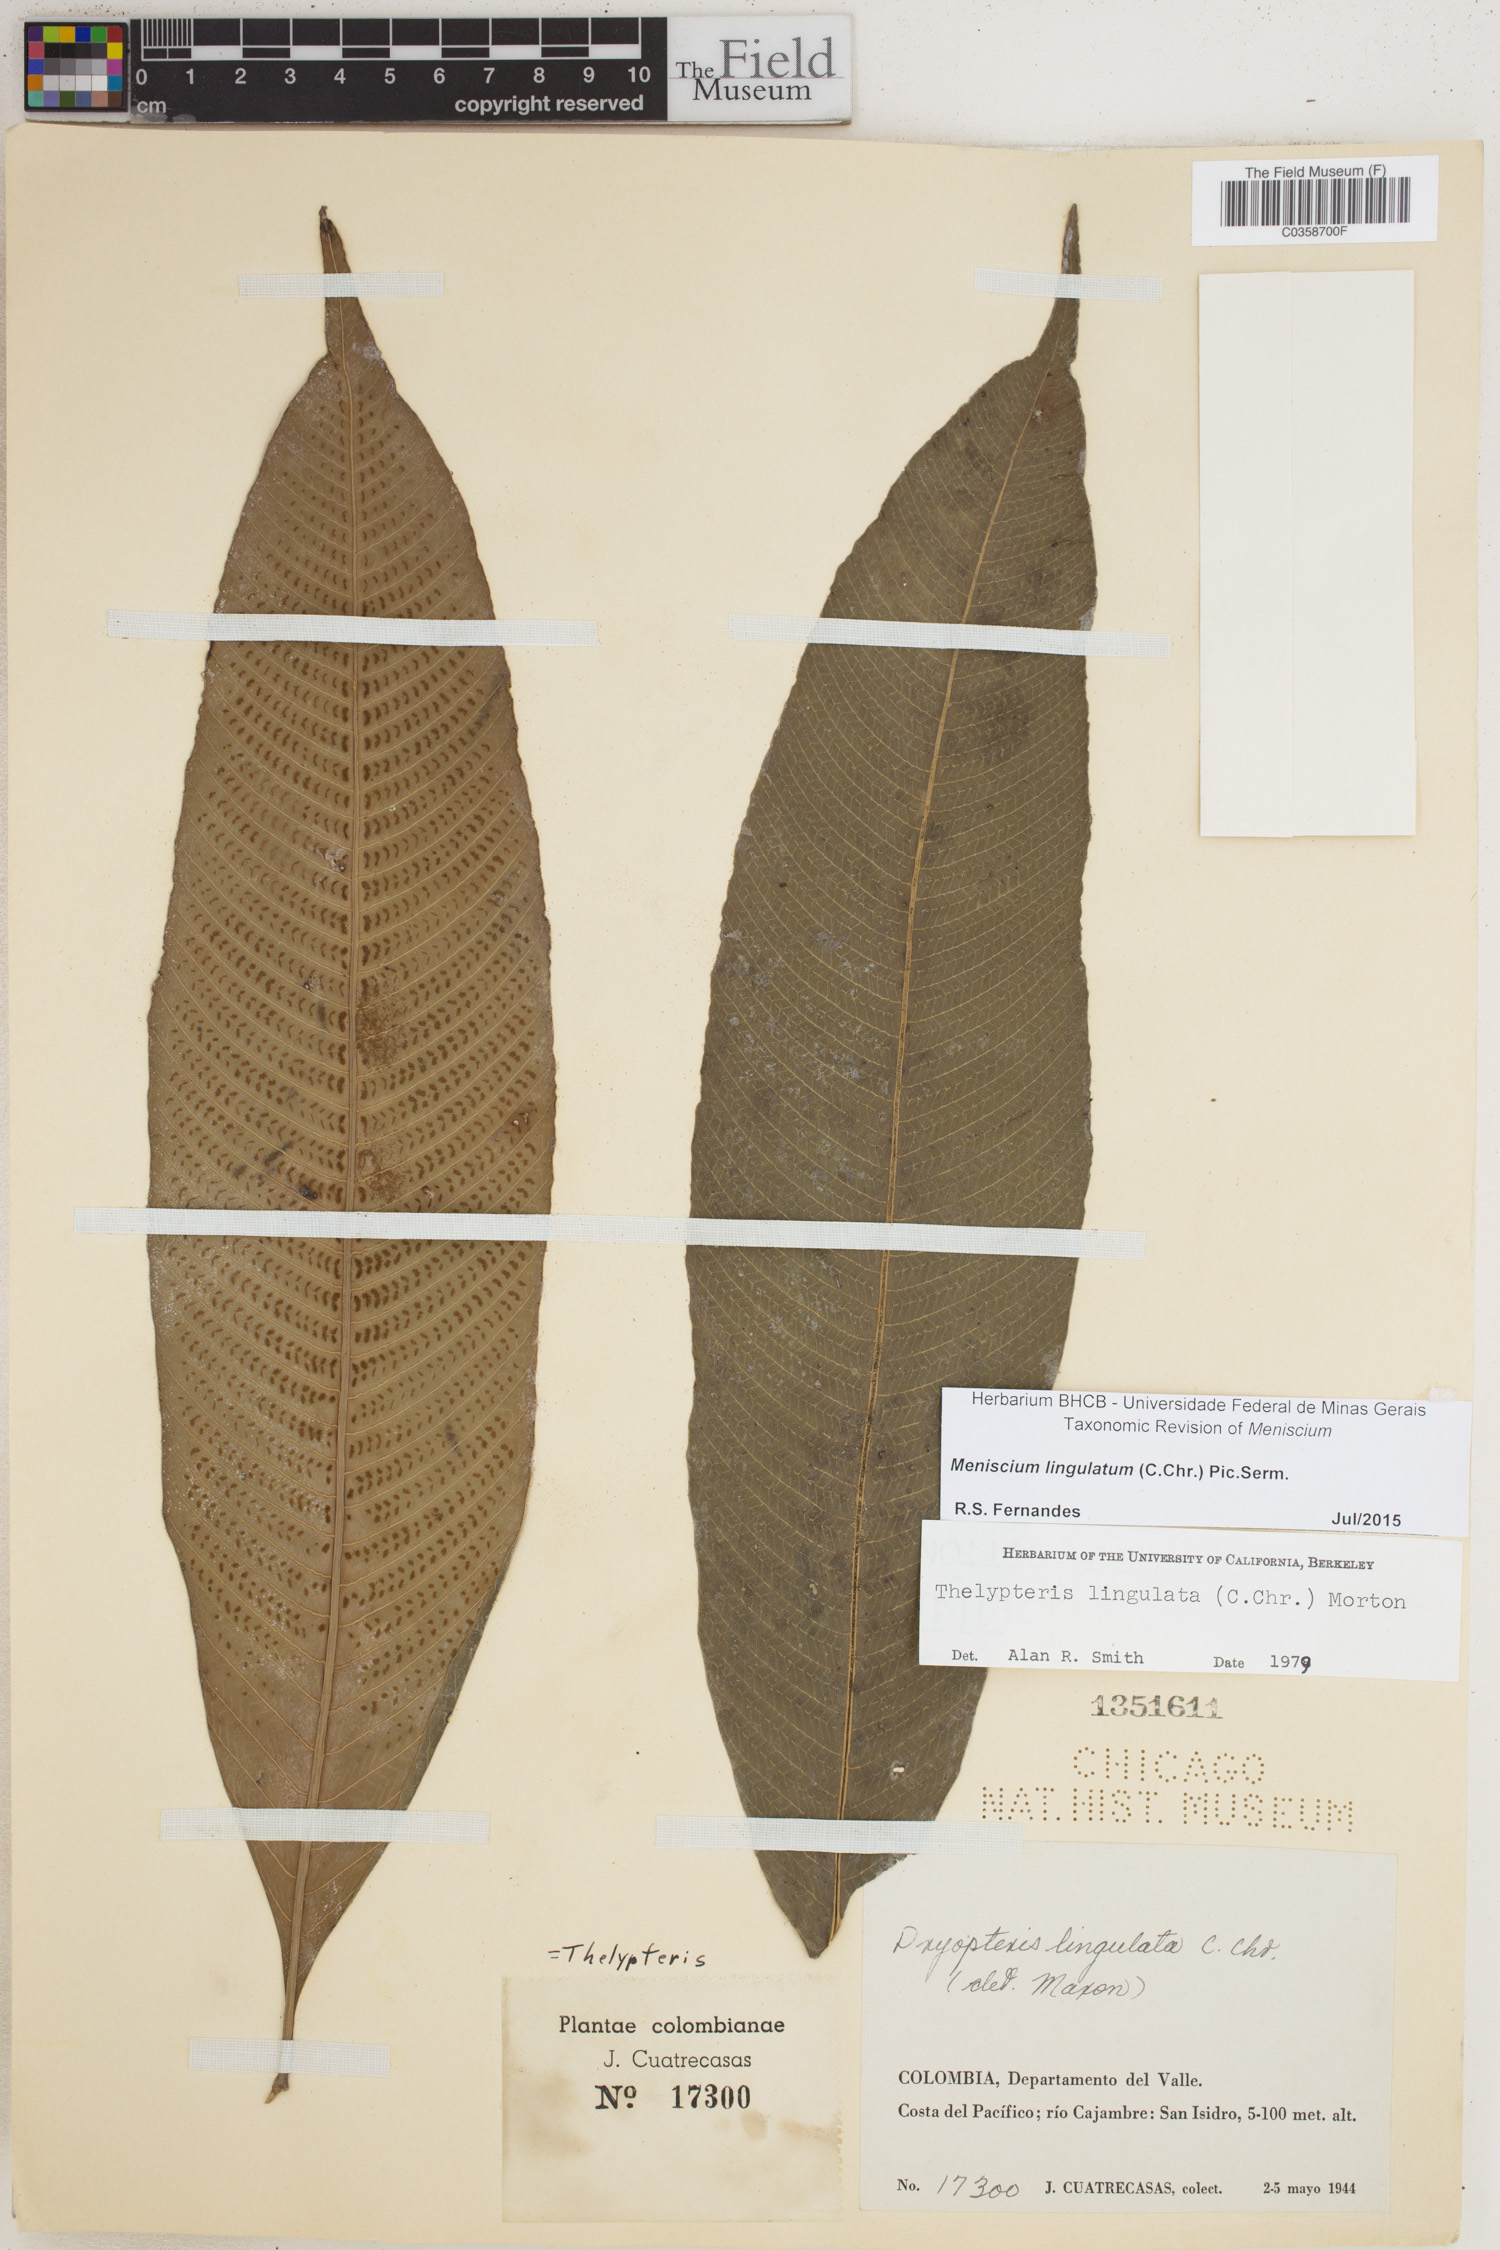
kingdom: Plantae
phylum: Tracheophyta
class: Polypodiopsida
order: Polypodiales
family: Thelypteridaceae
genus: Meniscium
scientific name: Meniscium lingulatum
